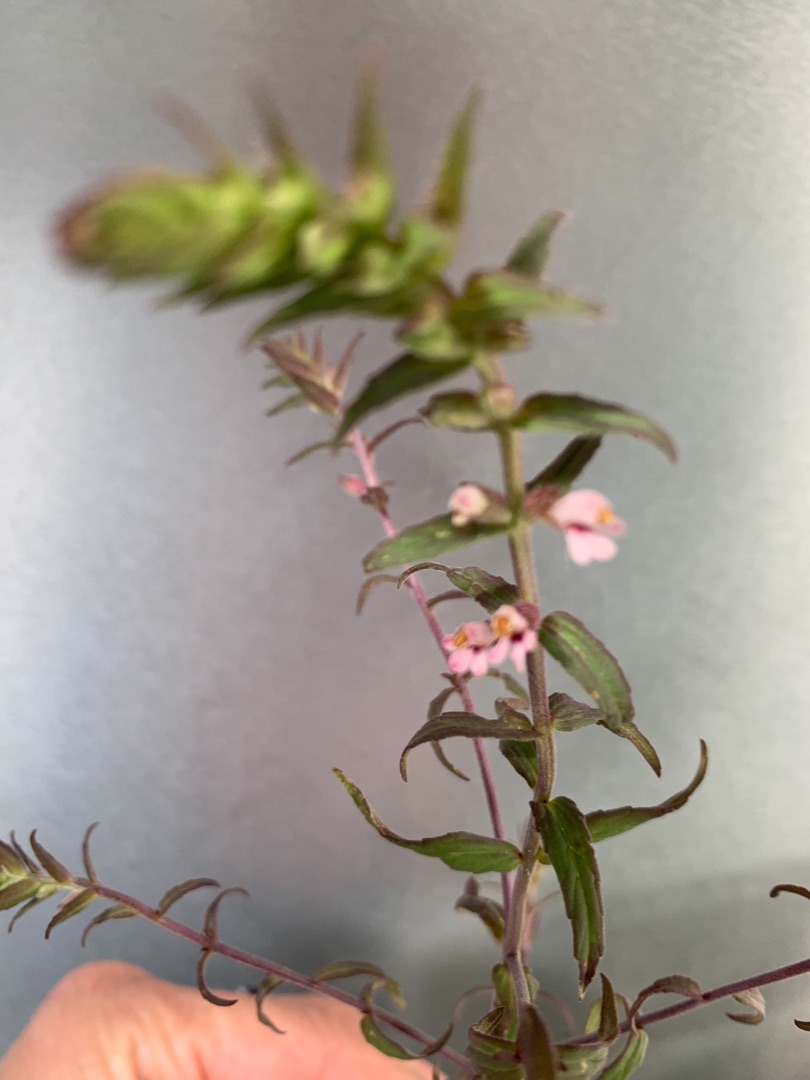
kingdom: Plantae
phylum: Tracheophyta
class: Magnoliopsida
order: Lamiales
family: Orobanchaceae
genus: Odontites
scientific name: Odontites vulgaris
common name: Høst-rødtop
